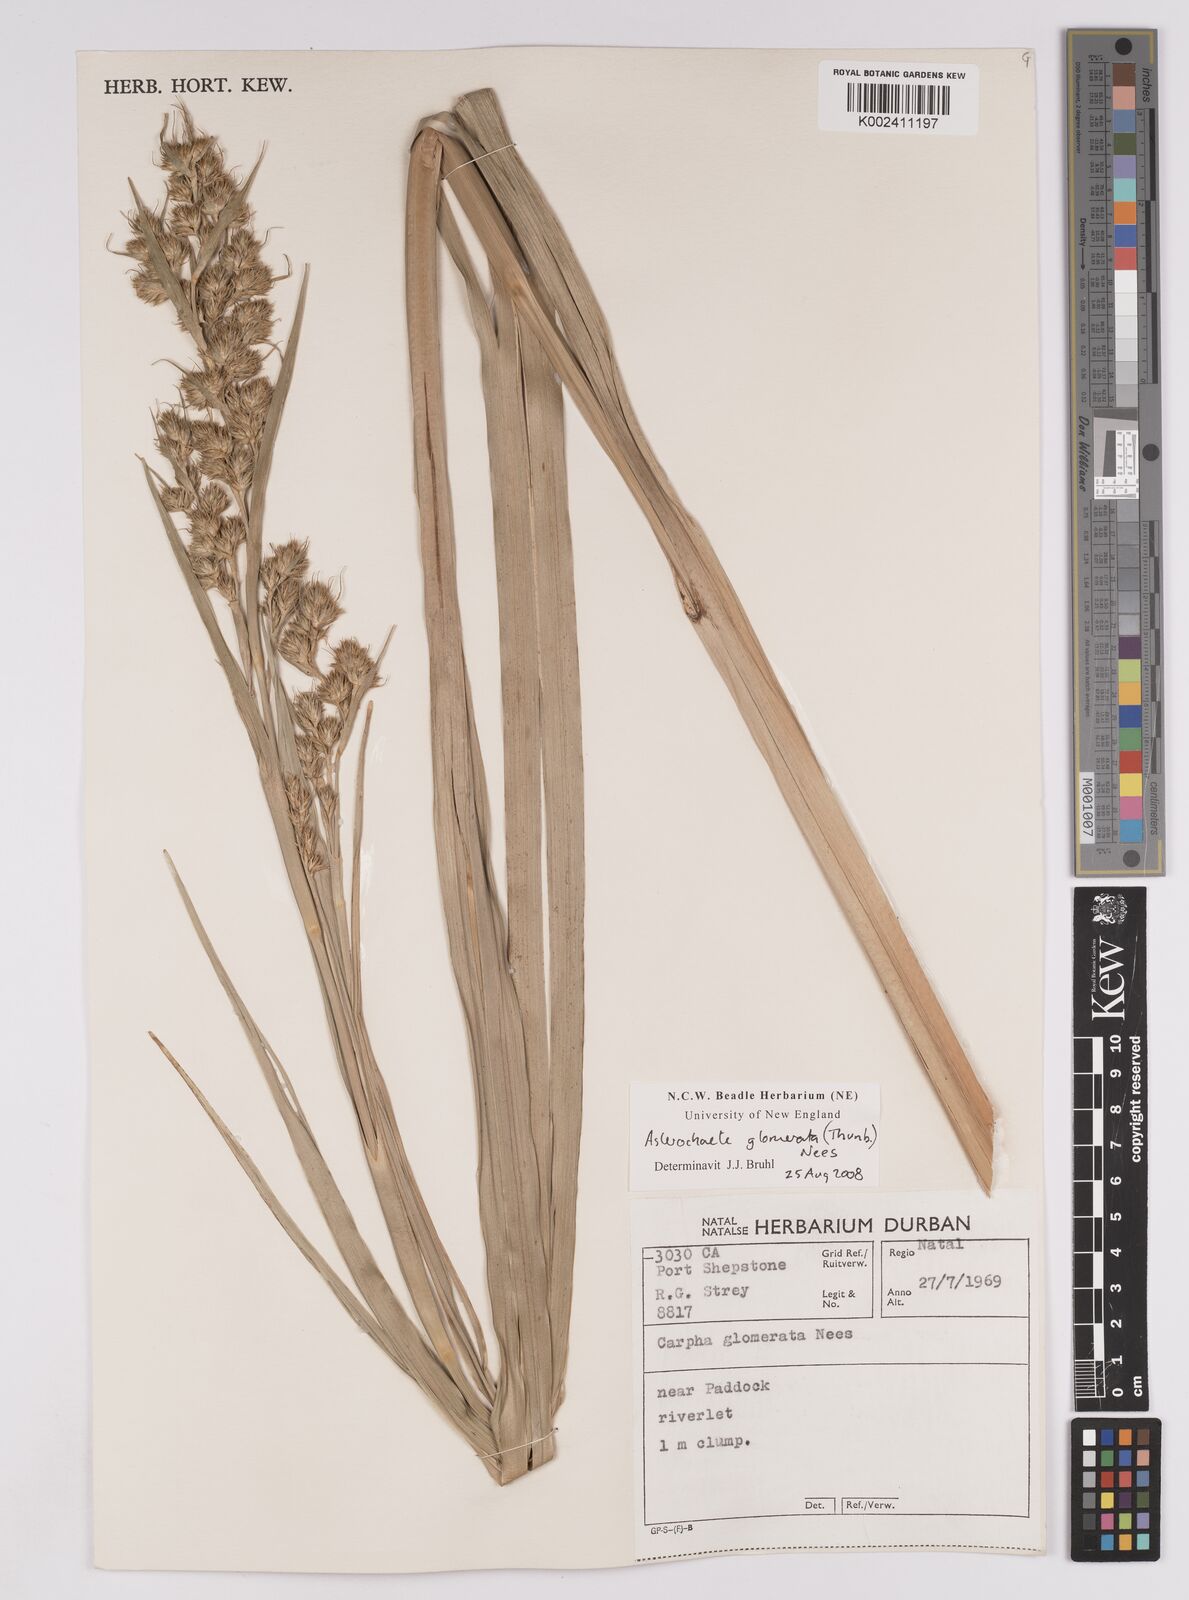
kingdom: Plantae
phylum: Tracheophyta
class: Liliopsida
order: Poales
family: Cyperaceae
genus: Carpha
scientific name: Carpha glomerata
